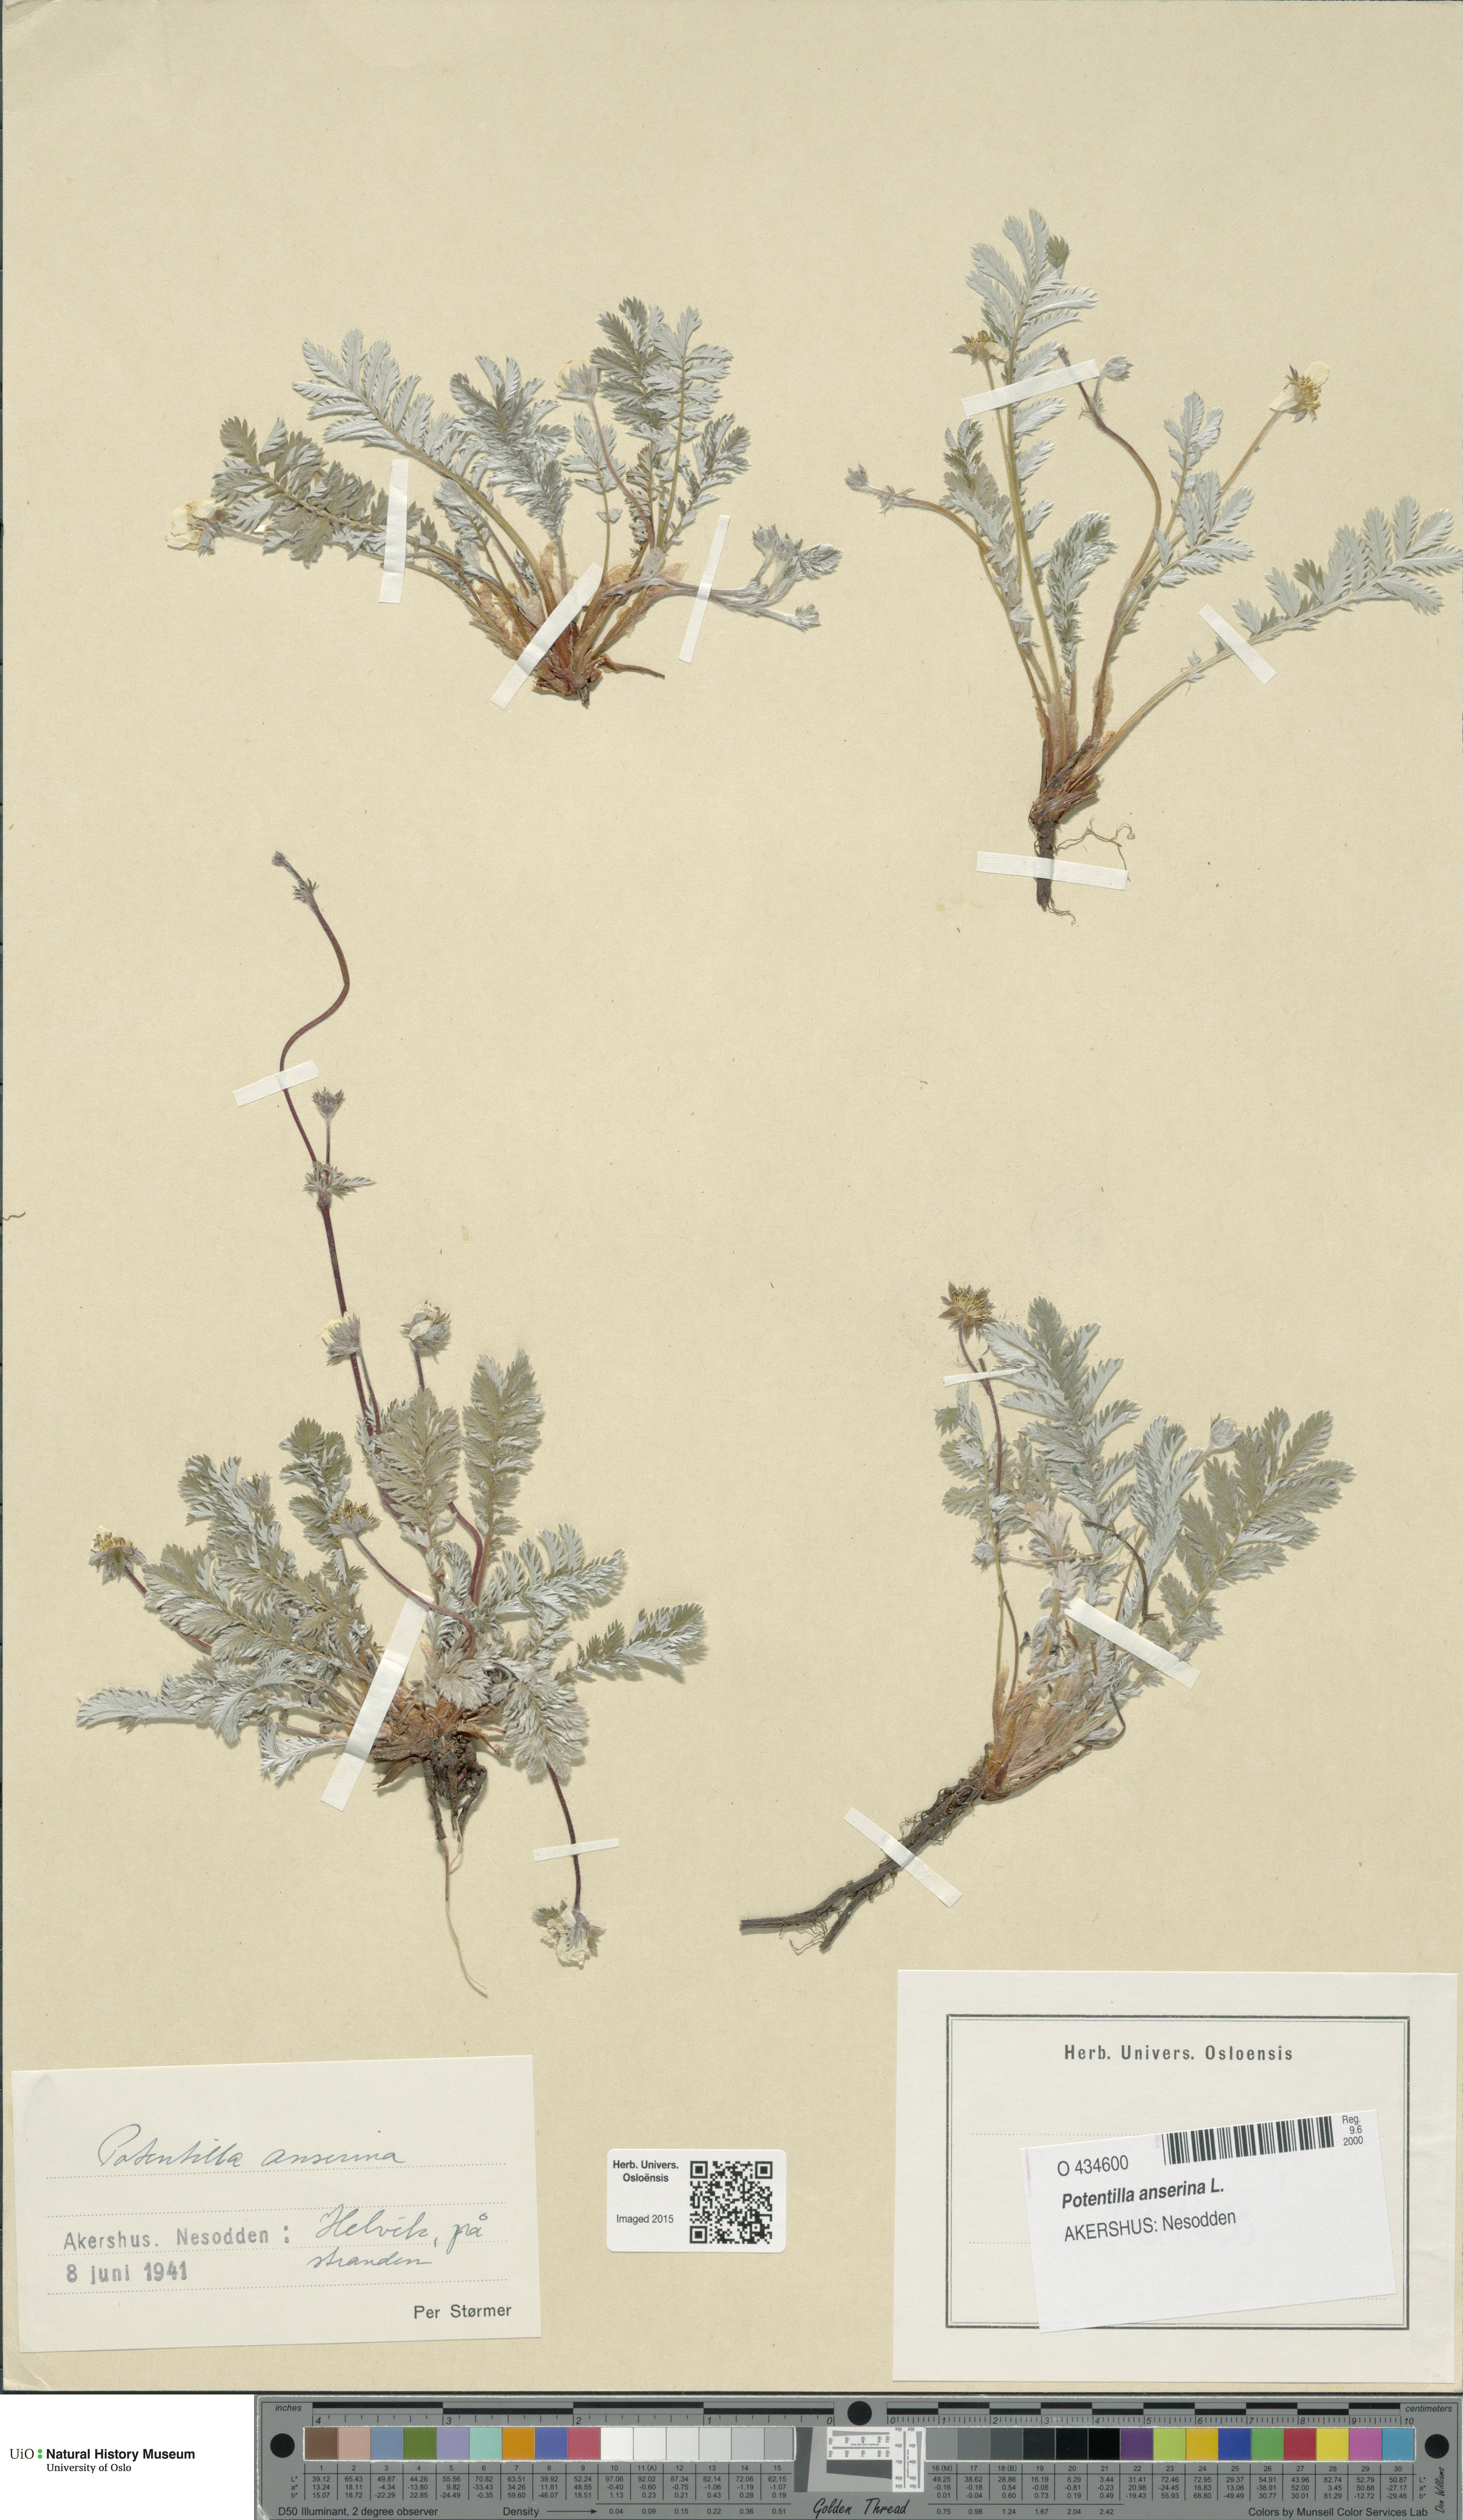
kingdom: Plantae
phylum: Tracheophyta
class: Magnoliopsida
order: Rosales
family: Rosaceae
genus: Argentina
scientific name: Argentina anserina
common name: Common silverweed
